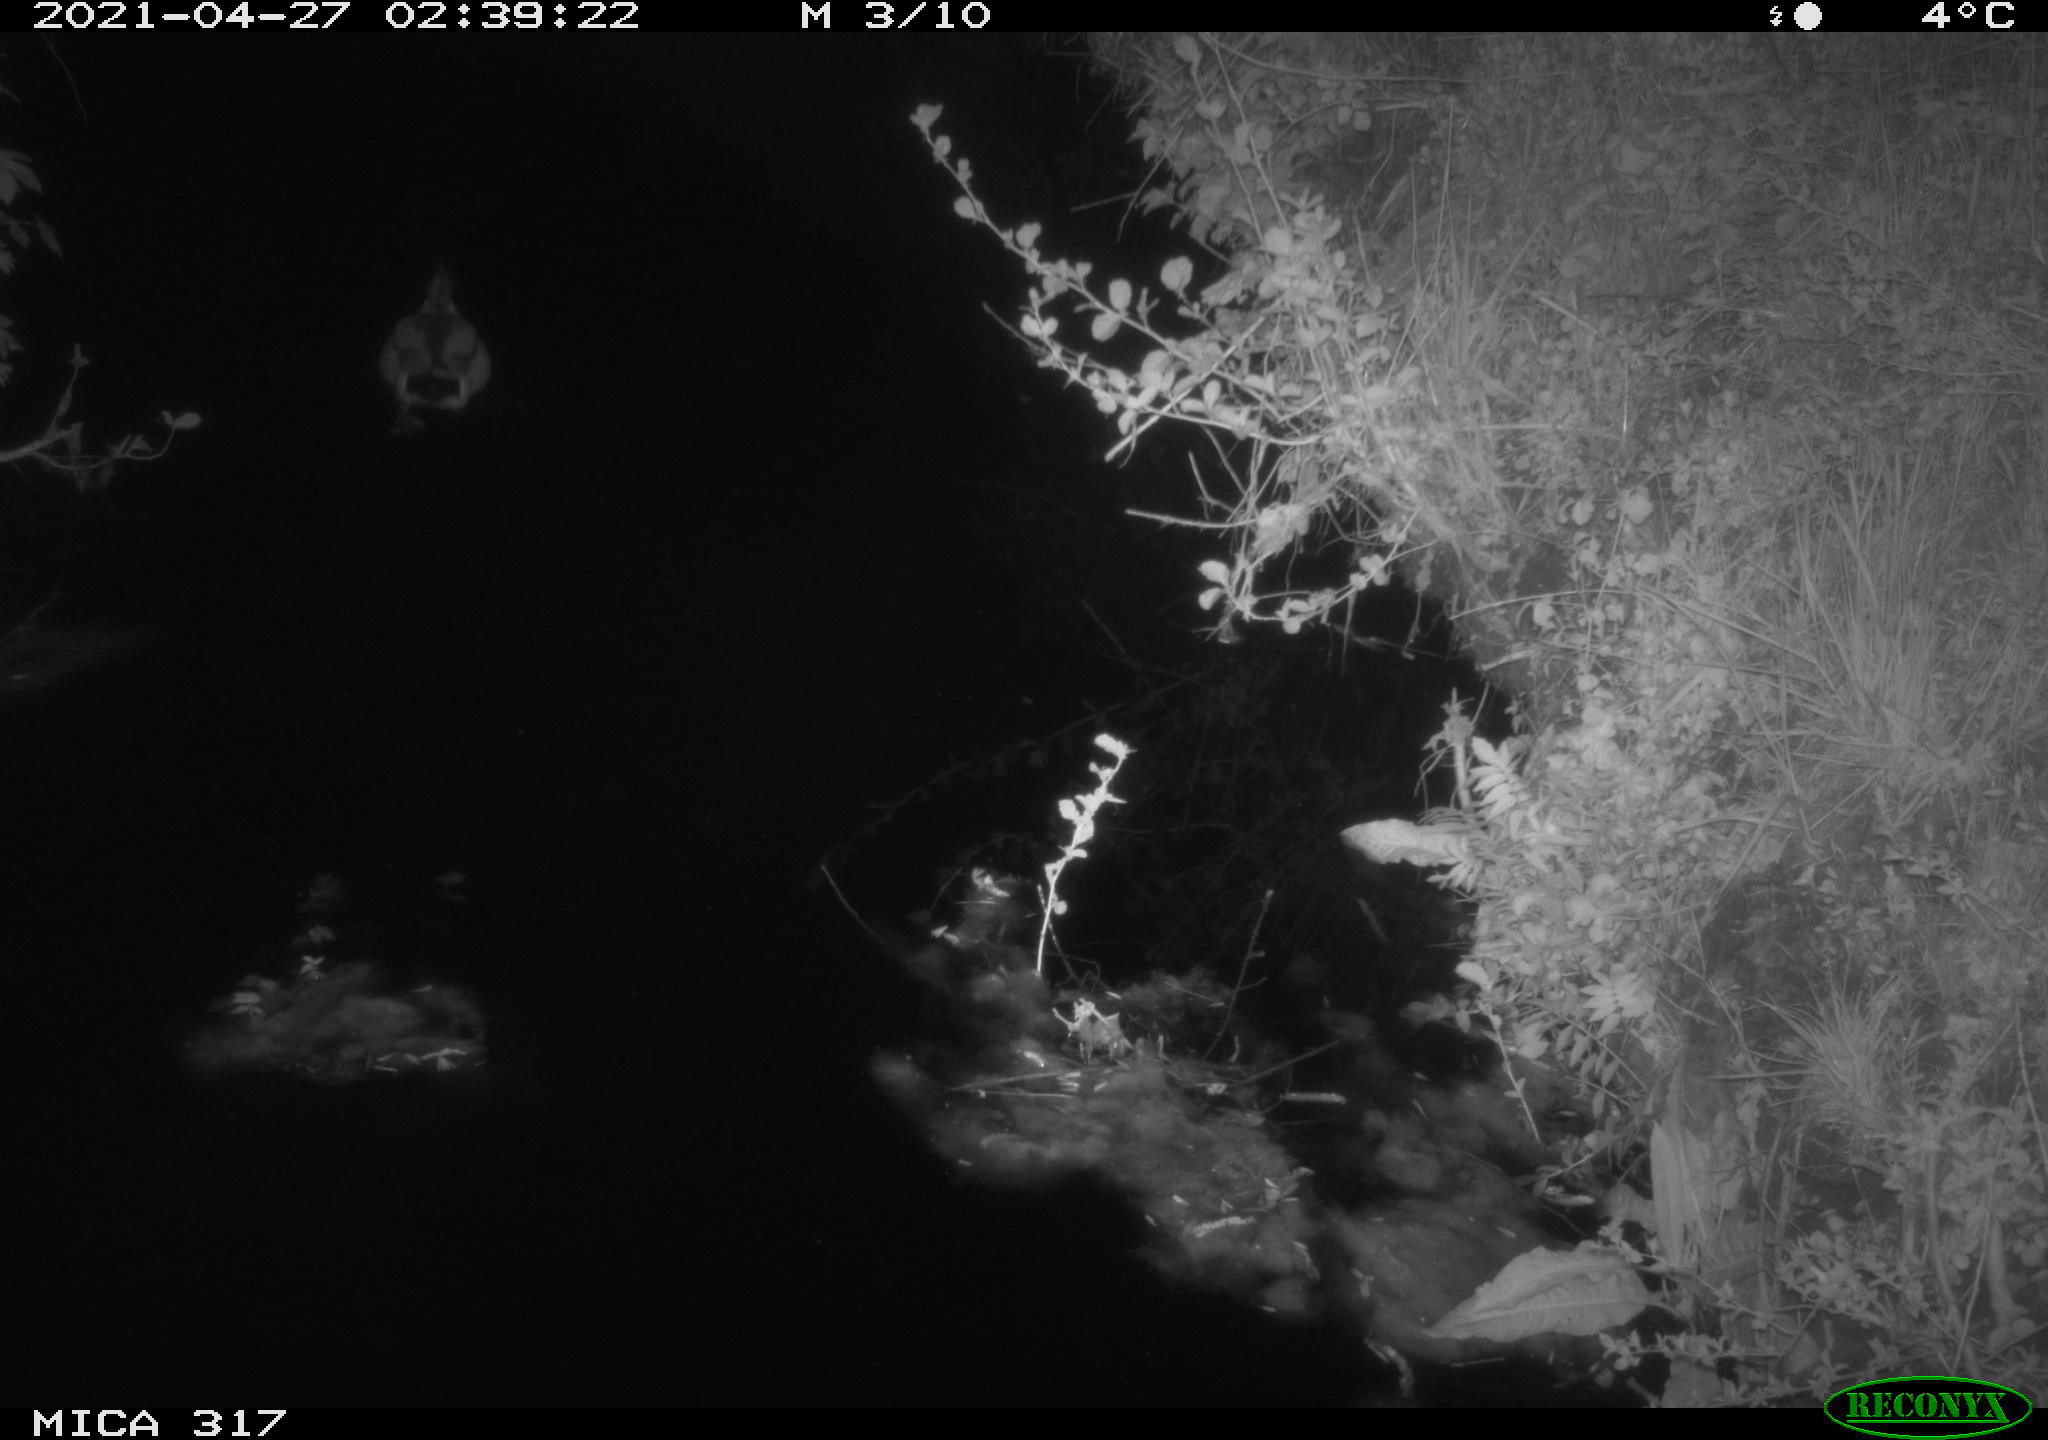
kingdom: Animalia
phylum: Chordata
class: Aves
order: Anseriformes
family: Anatidae
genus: Anas
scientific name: Anas
